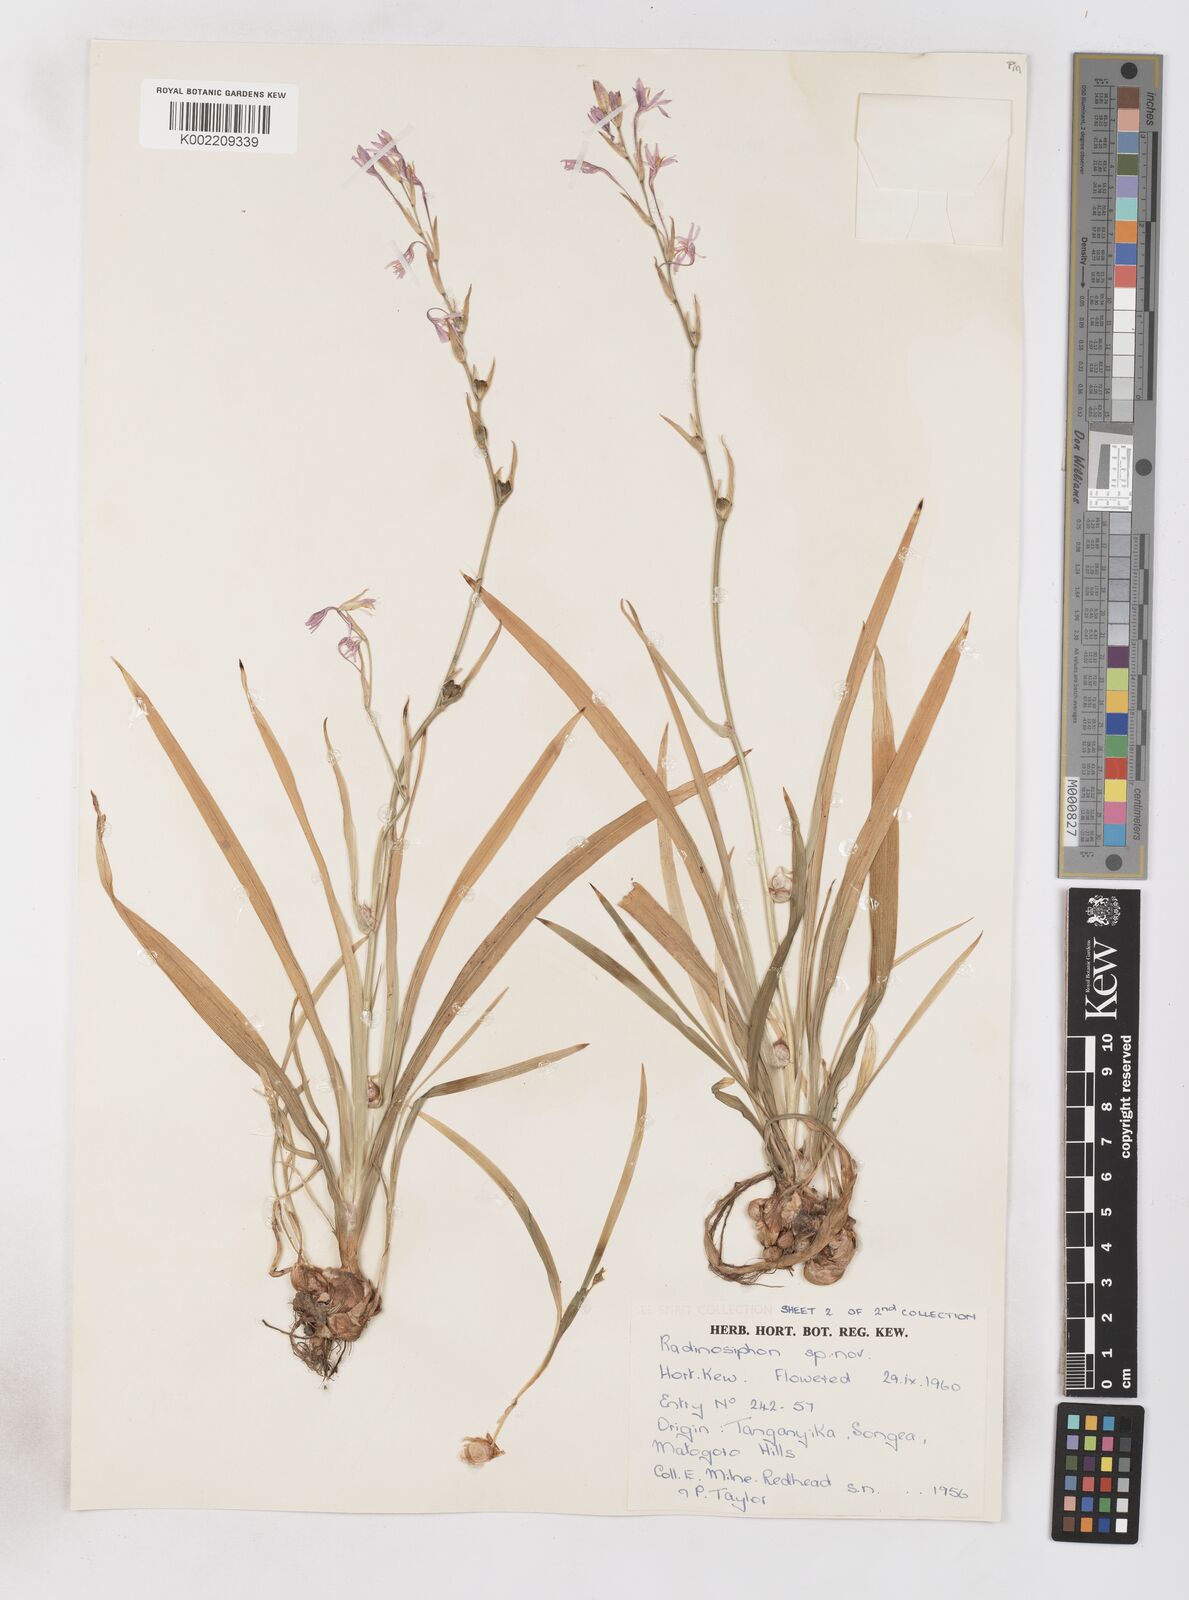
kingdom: Plantae
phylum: Tracheophyta
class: Liliopsida
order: Asparagales
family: Iridaceae
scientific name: Iridaceae
